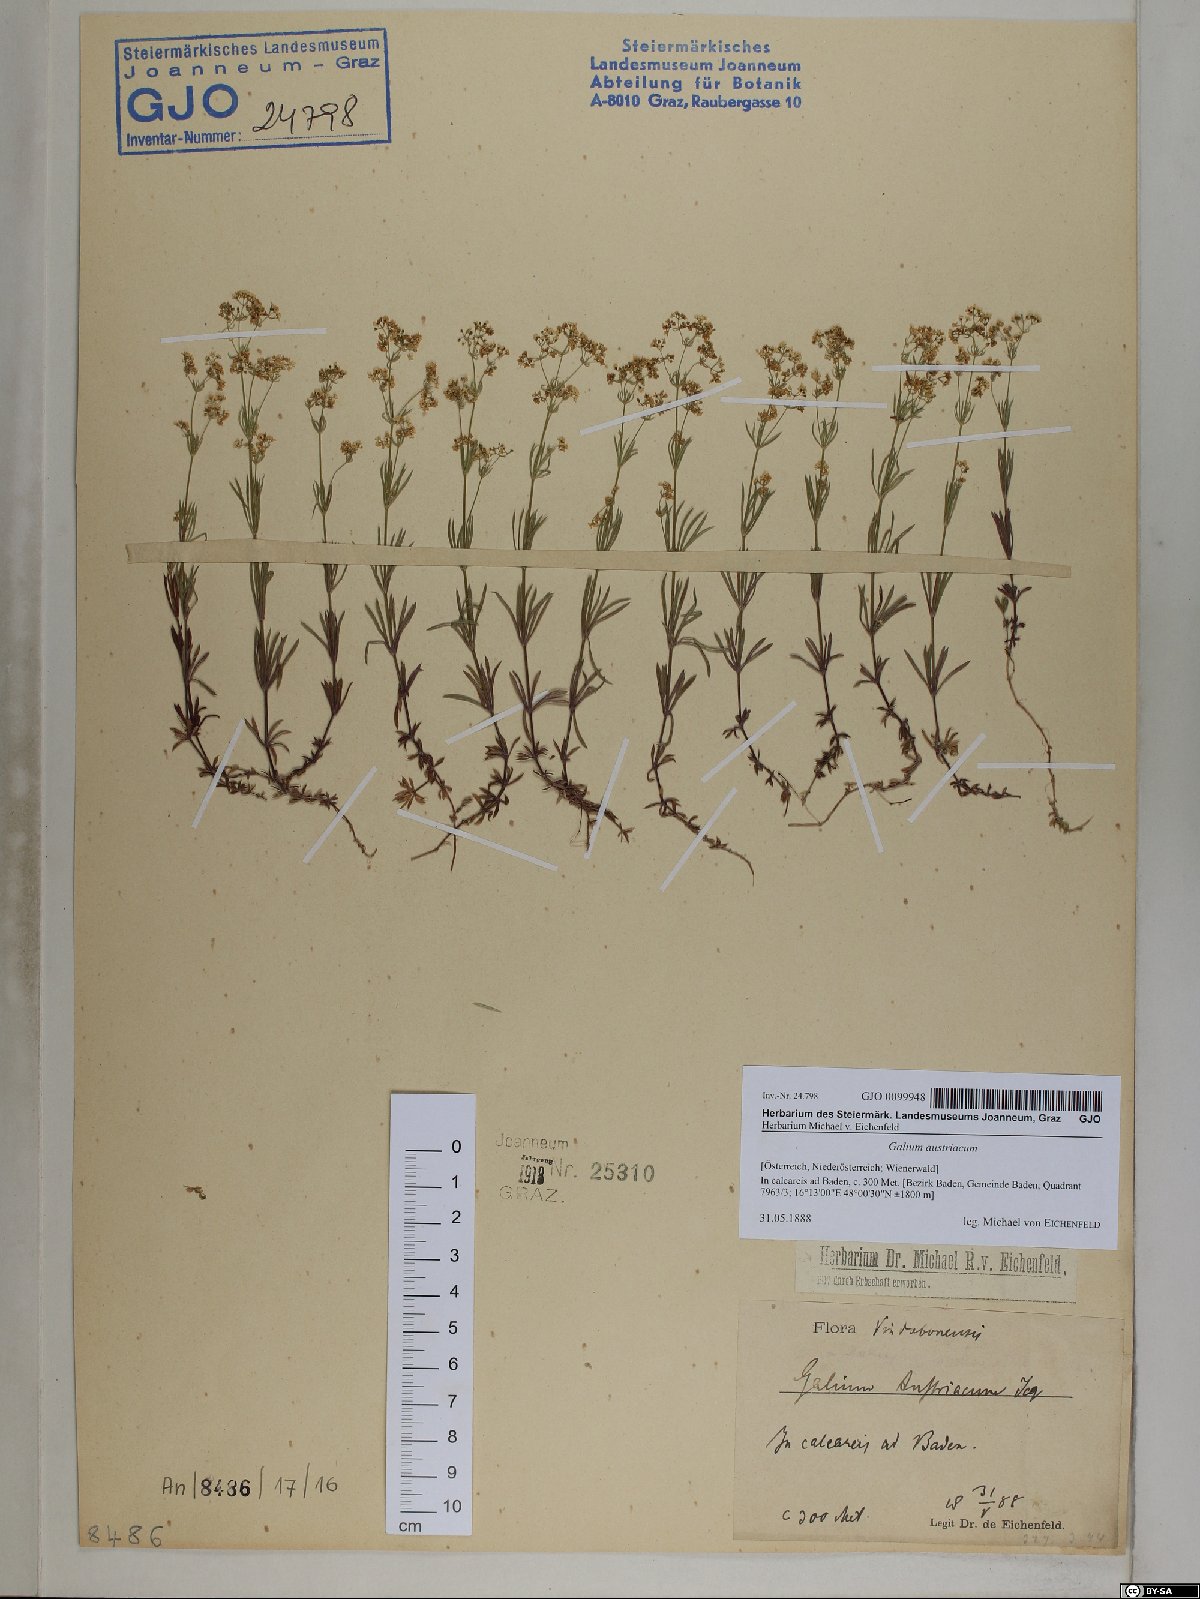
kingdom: Plantae
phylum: Tracheophyta
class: Magnoliopsida
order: Gentianales
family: Rubiaceae
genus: Galium
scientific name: Galium austriacum
